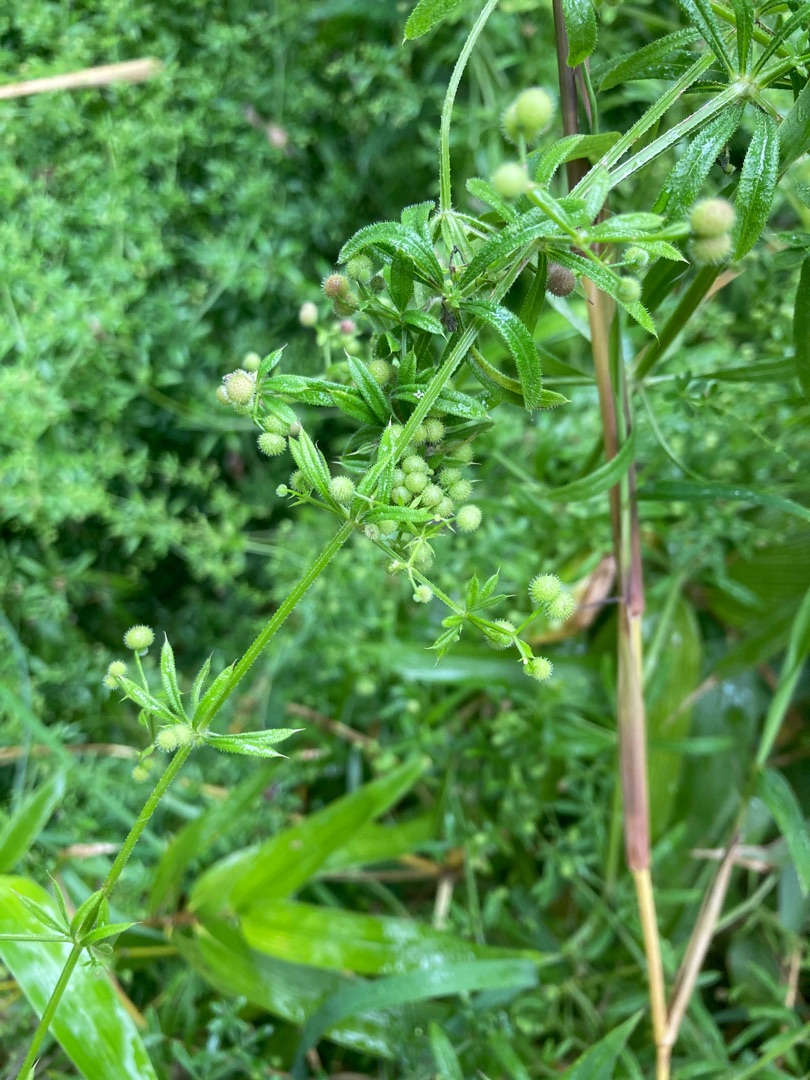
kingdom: Plantae
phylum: Tracheophyta
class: Magnoliopsida
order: Gentianales
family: Rubiaceae
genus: Galium
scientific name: Galium aparine
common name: Burre-snerre
